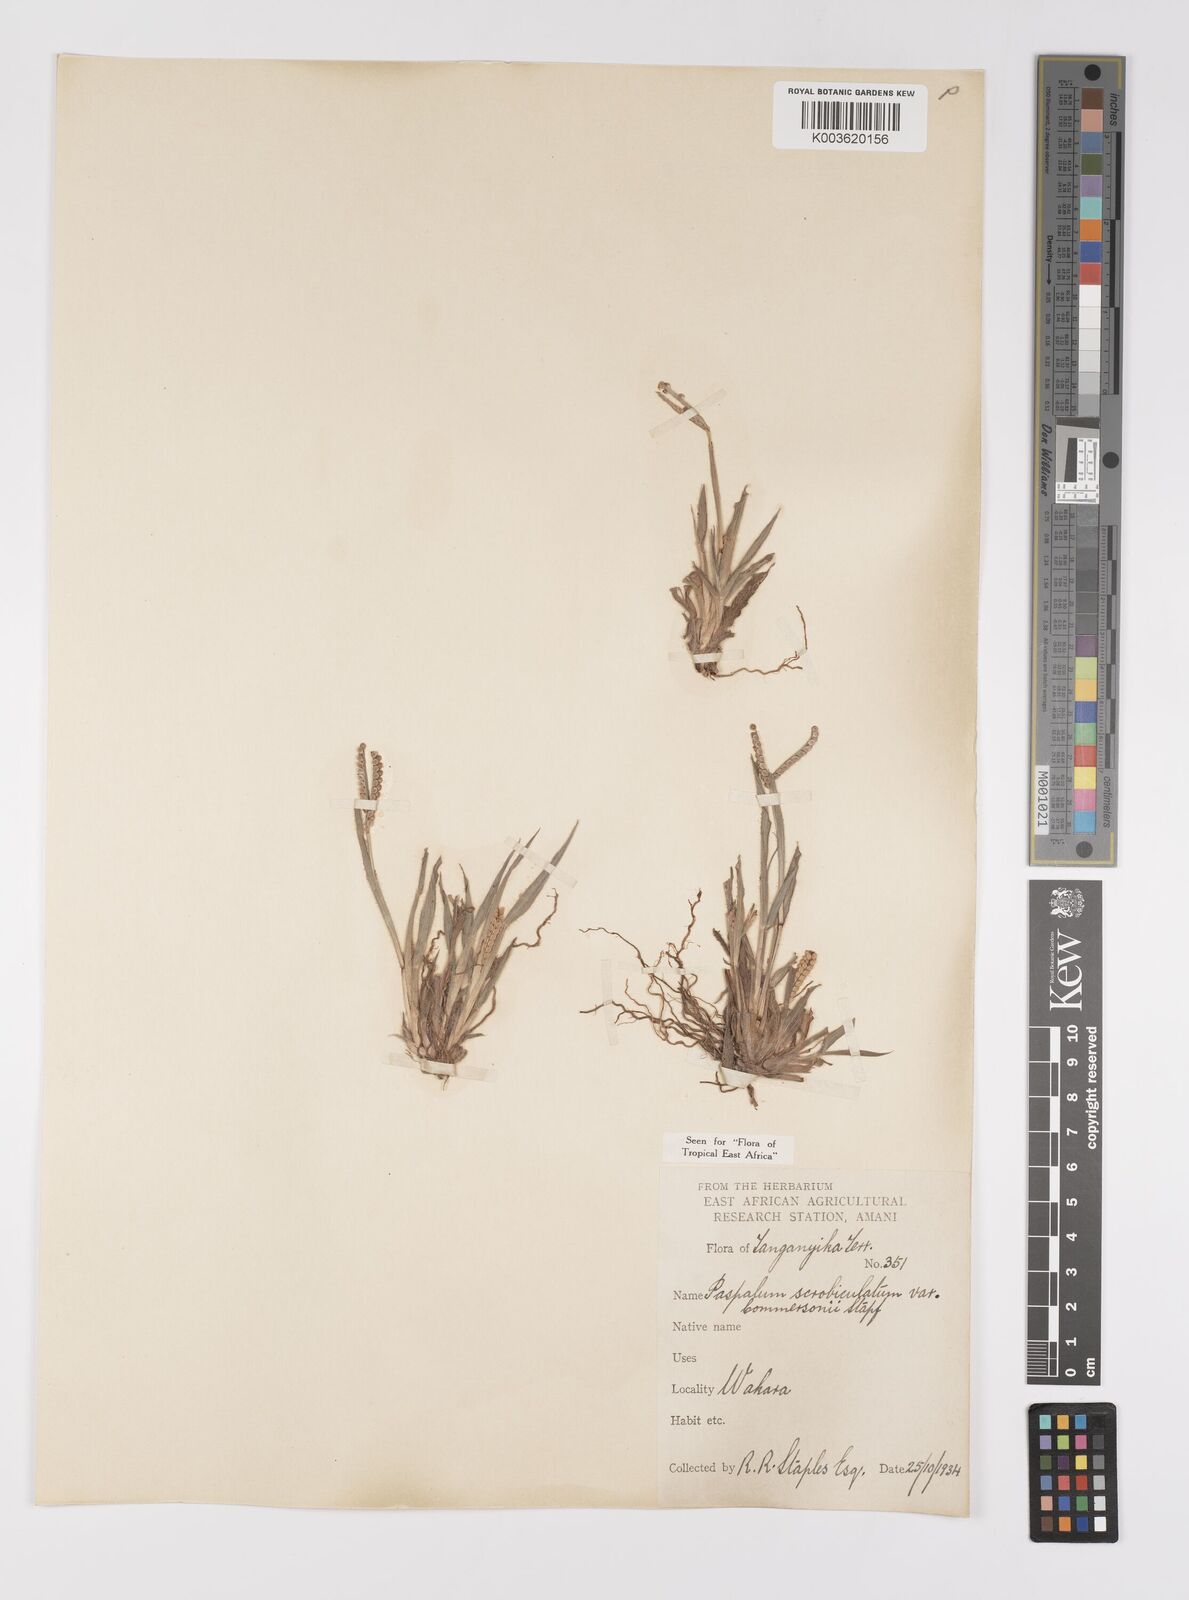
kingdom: Plantae
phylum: Tracheophyta
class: Liliopsida
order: Poales
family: Poaceae
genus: Paspalum
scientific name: Paspalum scrobiculatum
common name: Kodo millet
